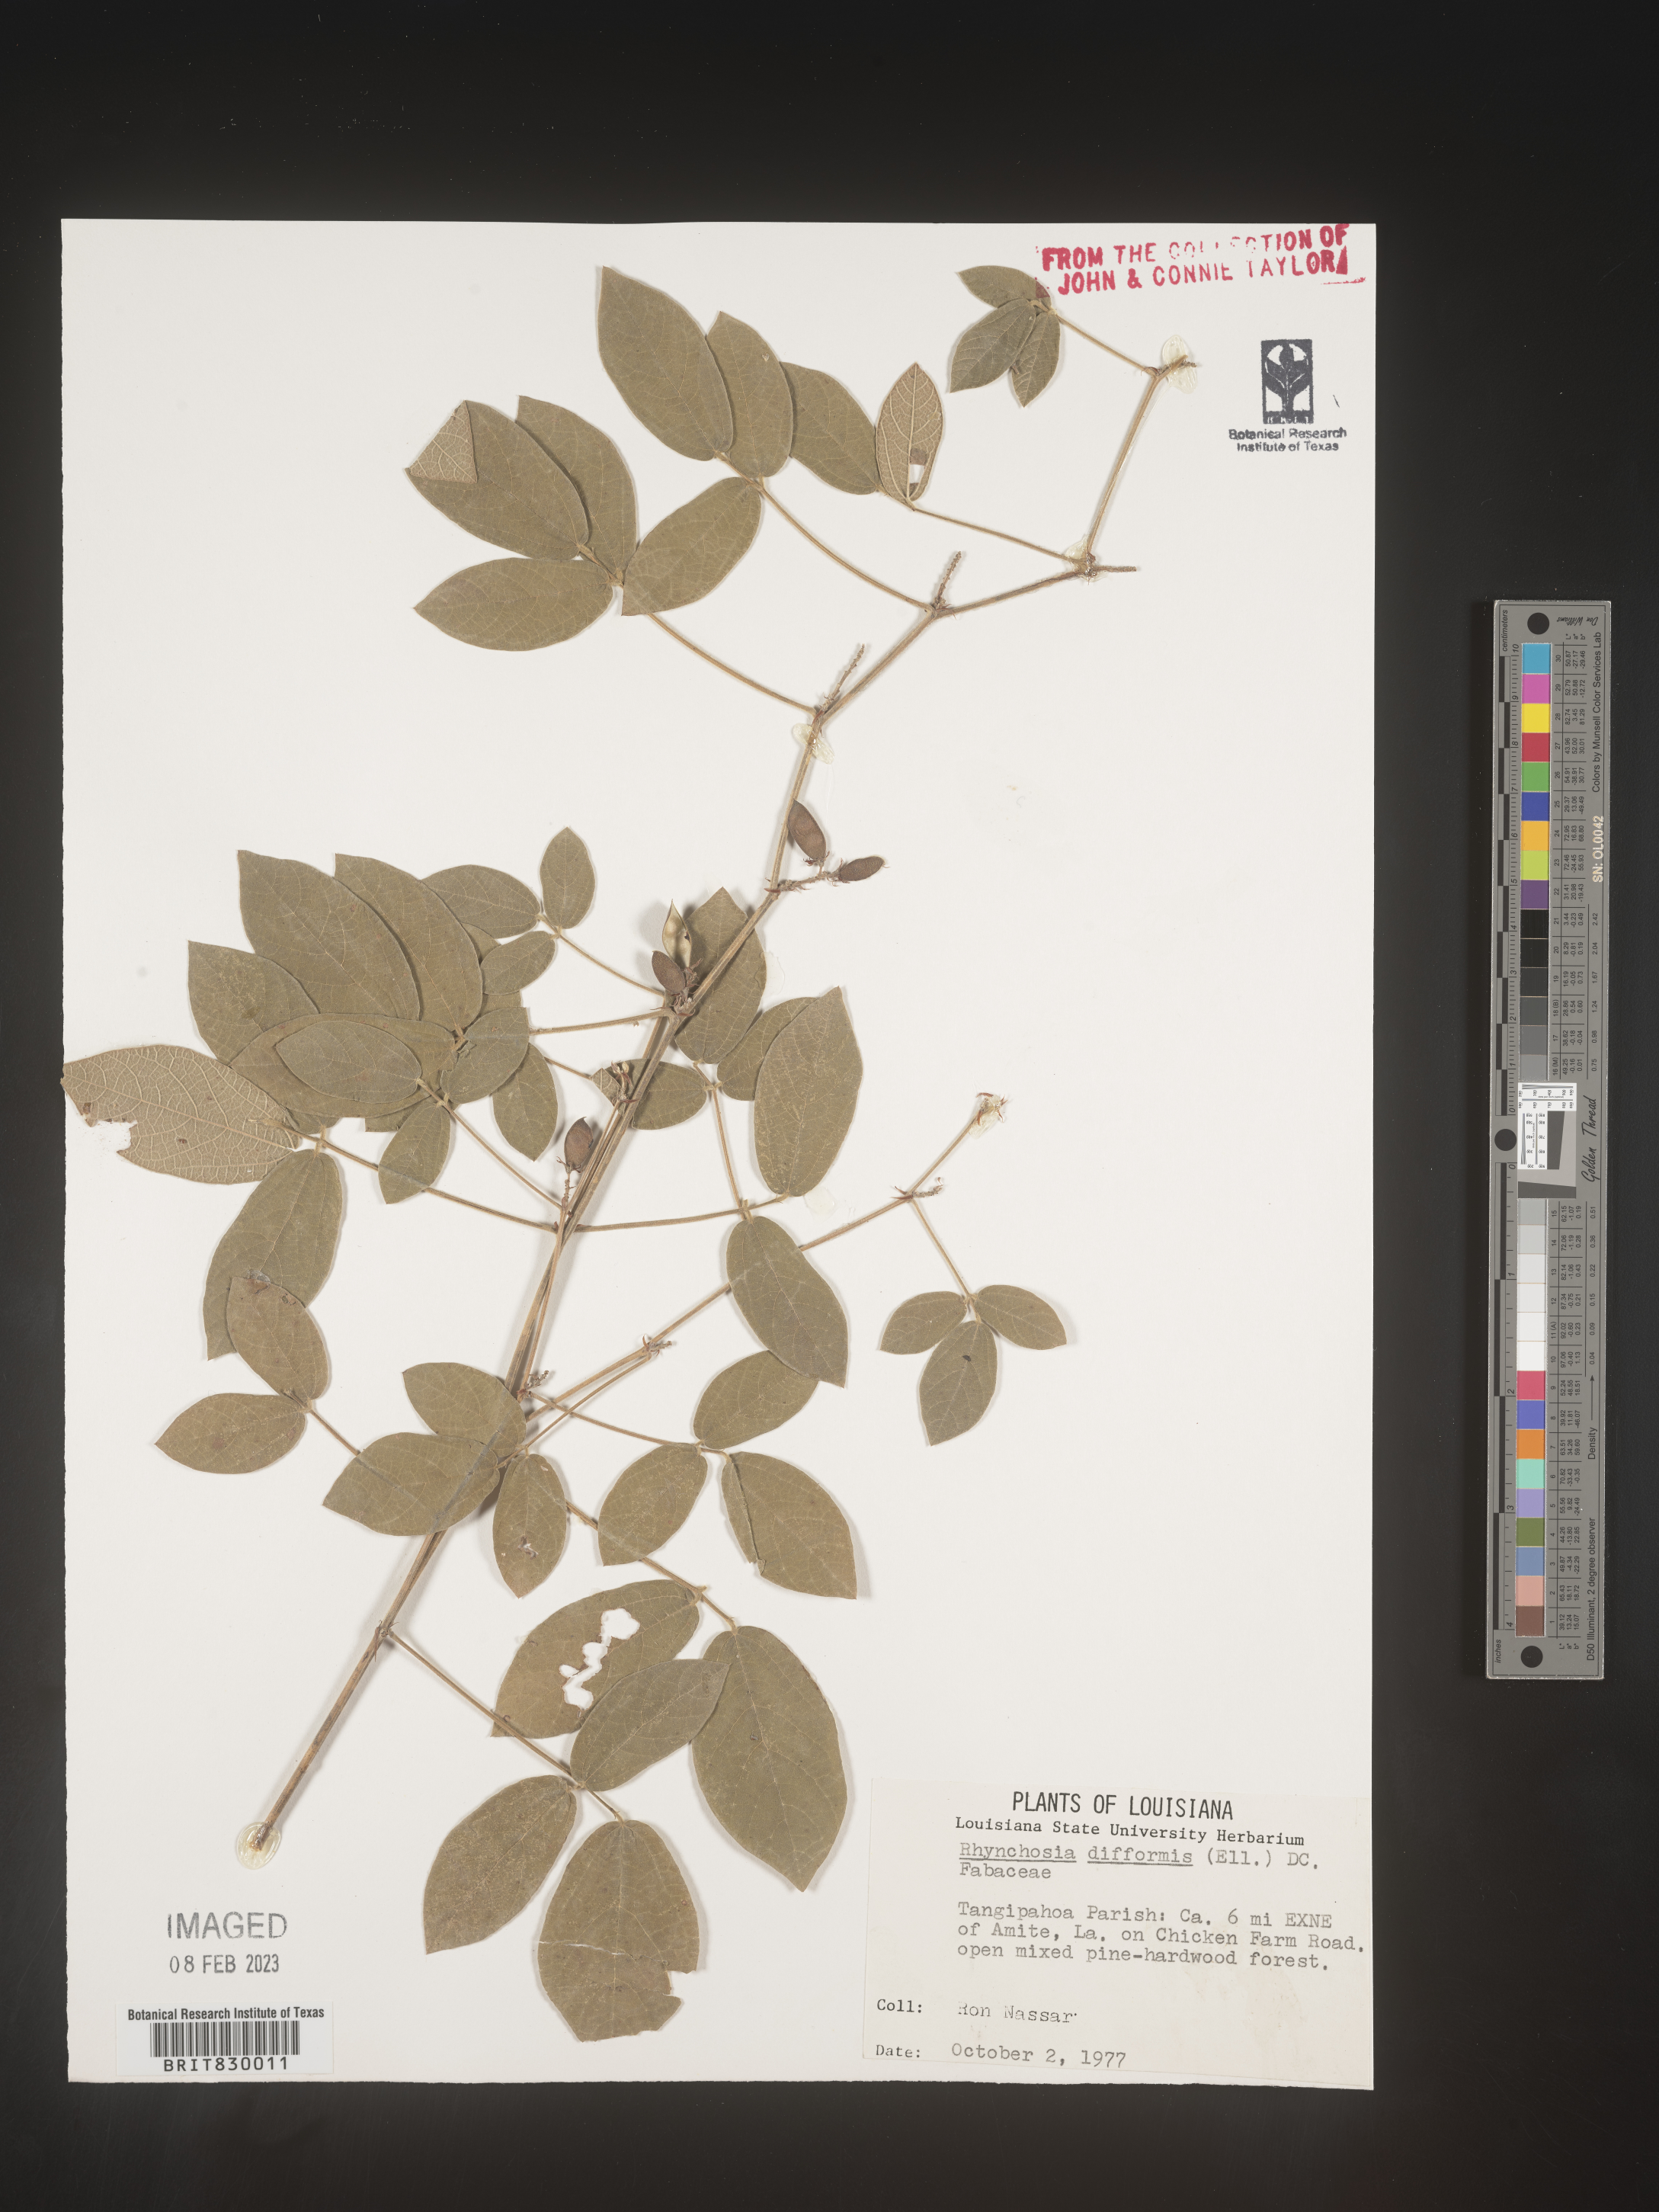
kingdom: Plantae
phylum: Tracheophyta
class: Magnoliopsida
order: Fabales
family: Fabaceae
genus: Rhynchosia
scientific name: Rhynchosia difformis
